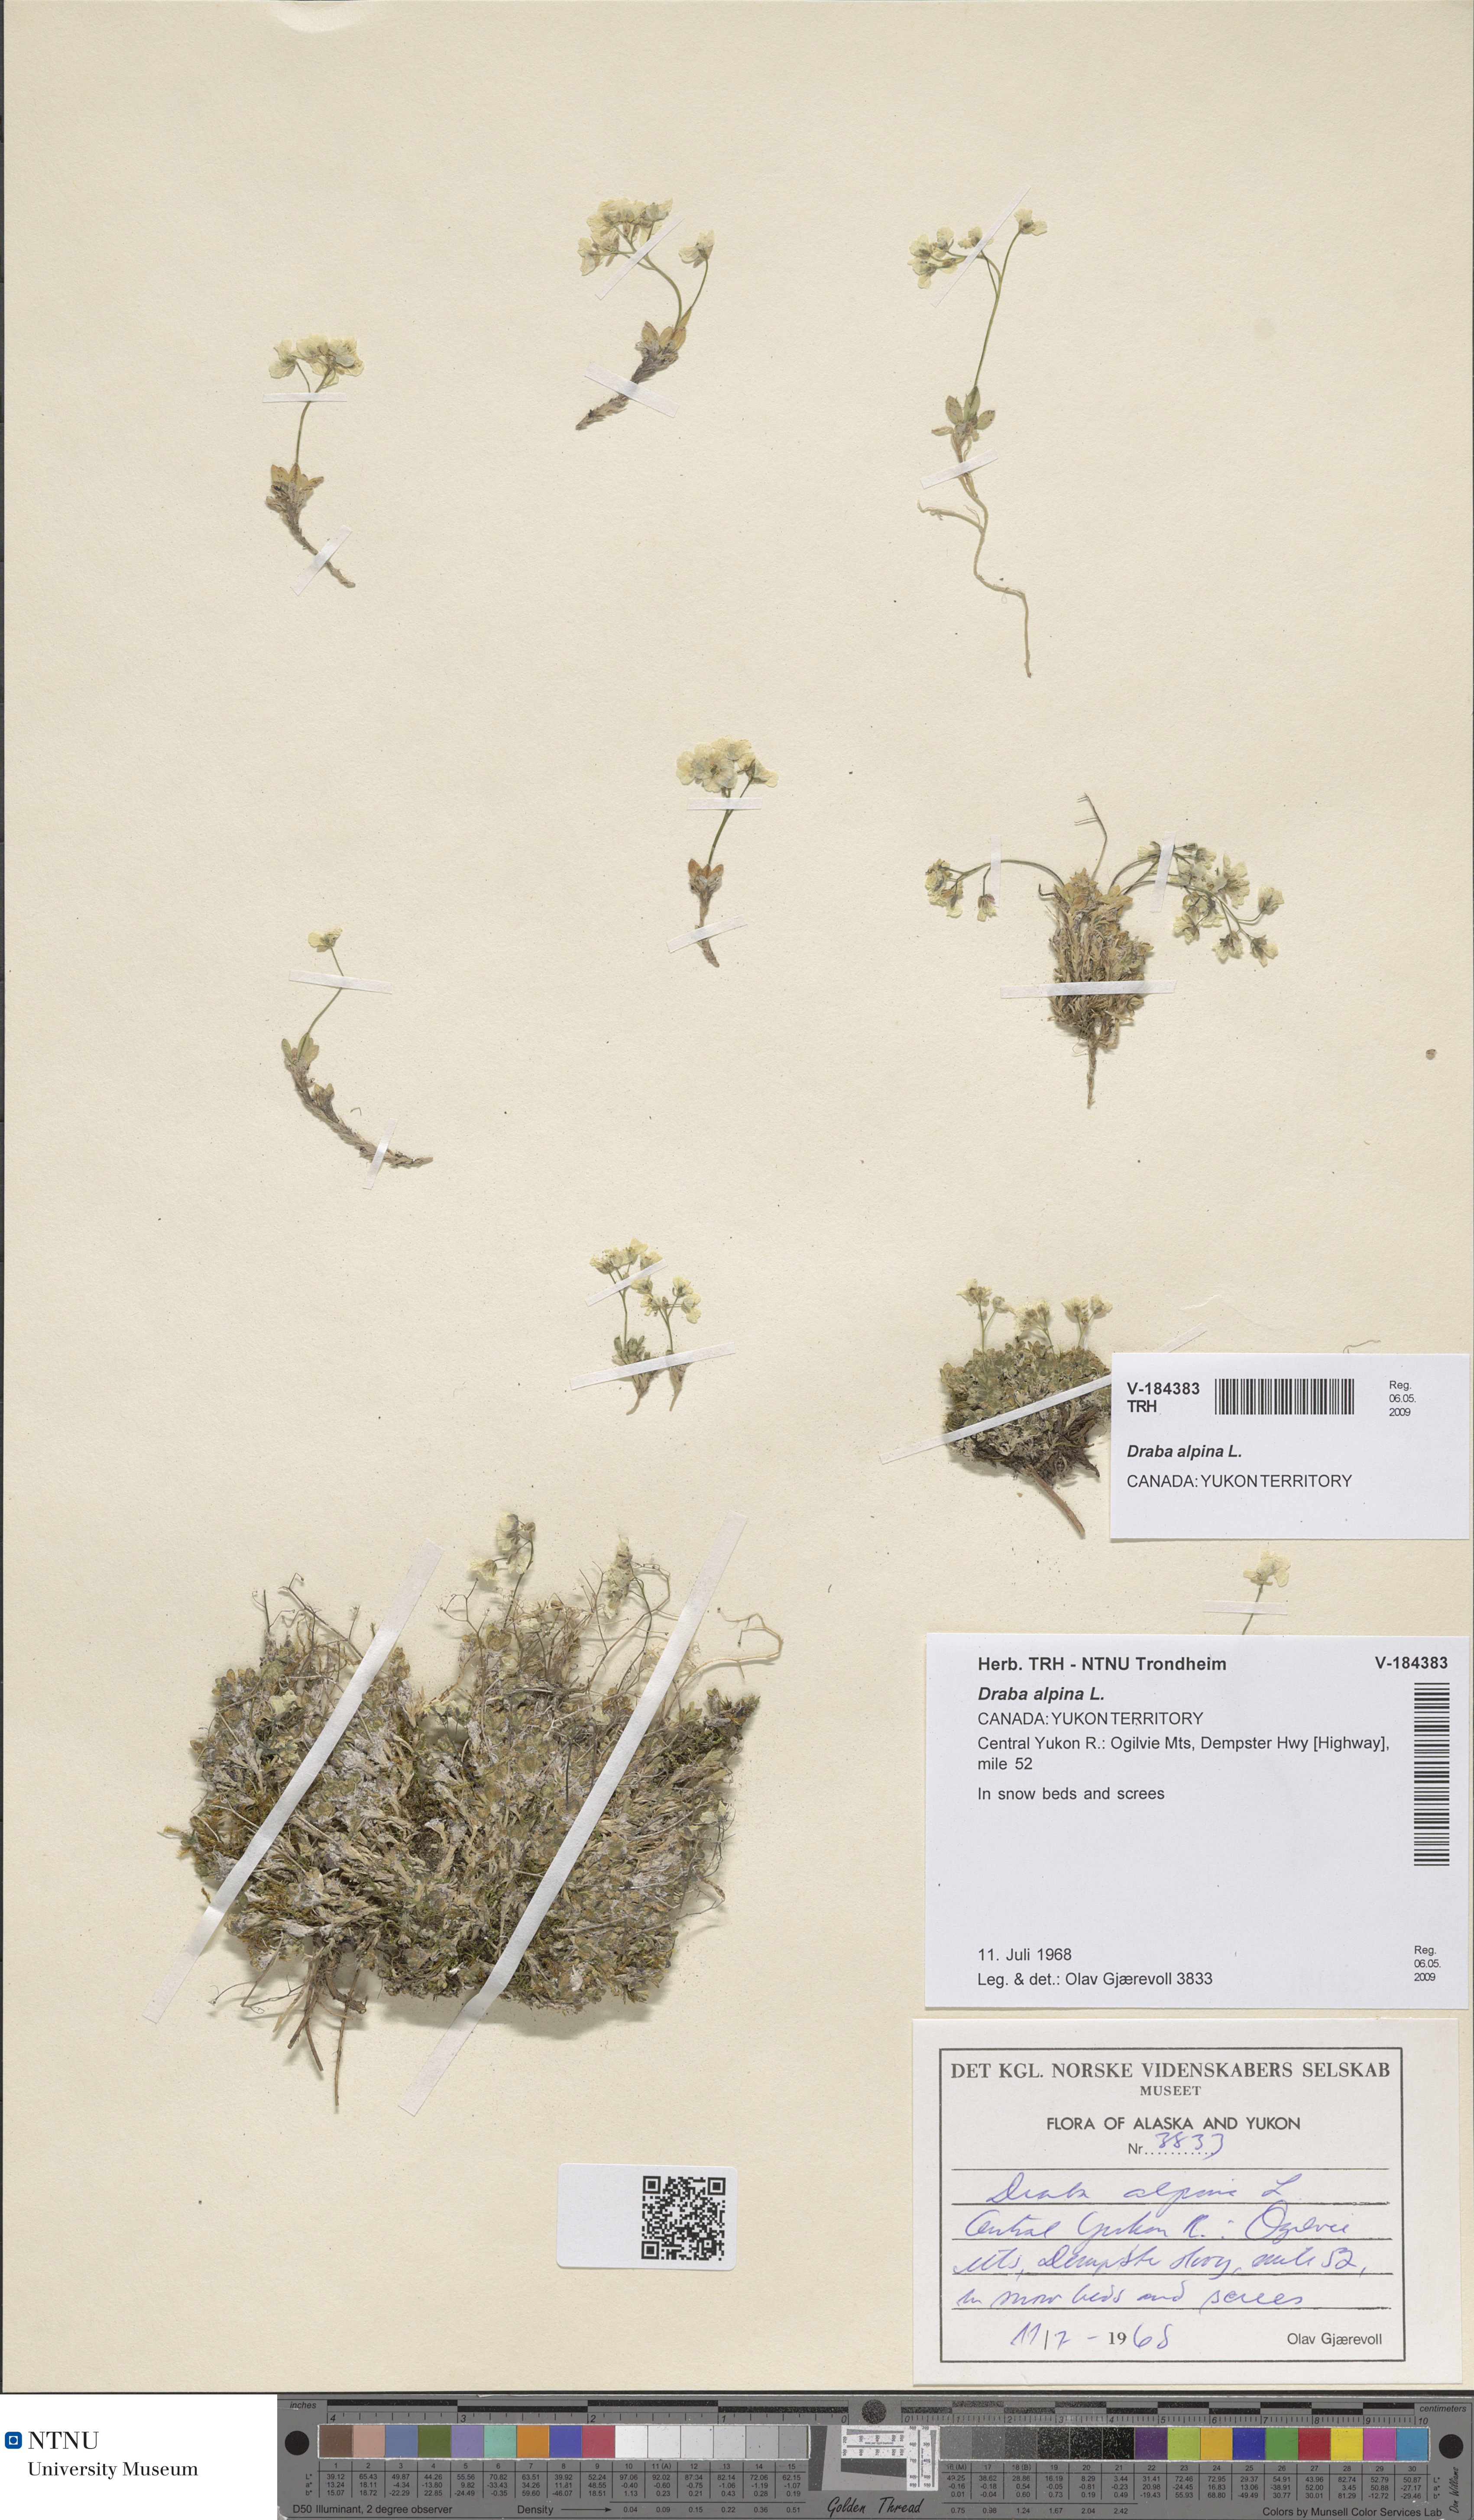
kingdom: Plantae
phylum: Tracheophyta
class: Magnoliopsida
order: Brassicales
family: Brassicaceae
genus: Draba
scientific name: Draba alpina
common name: Alpine draba
